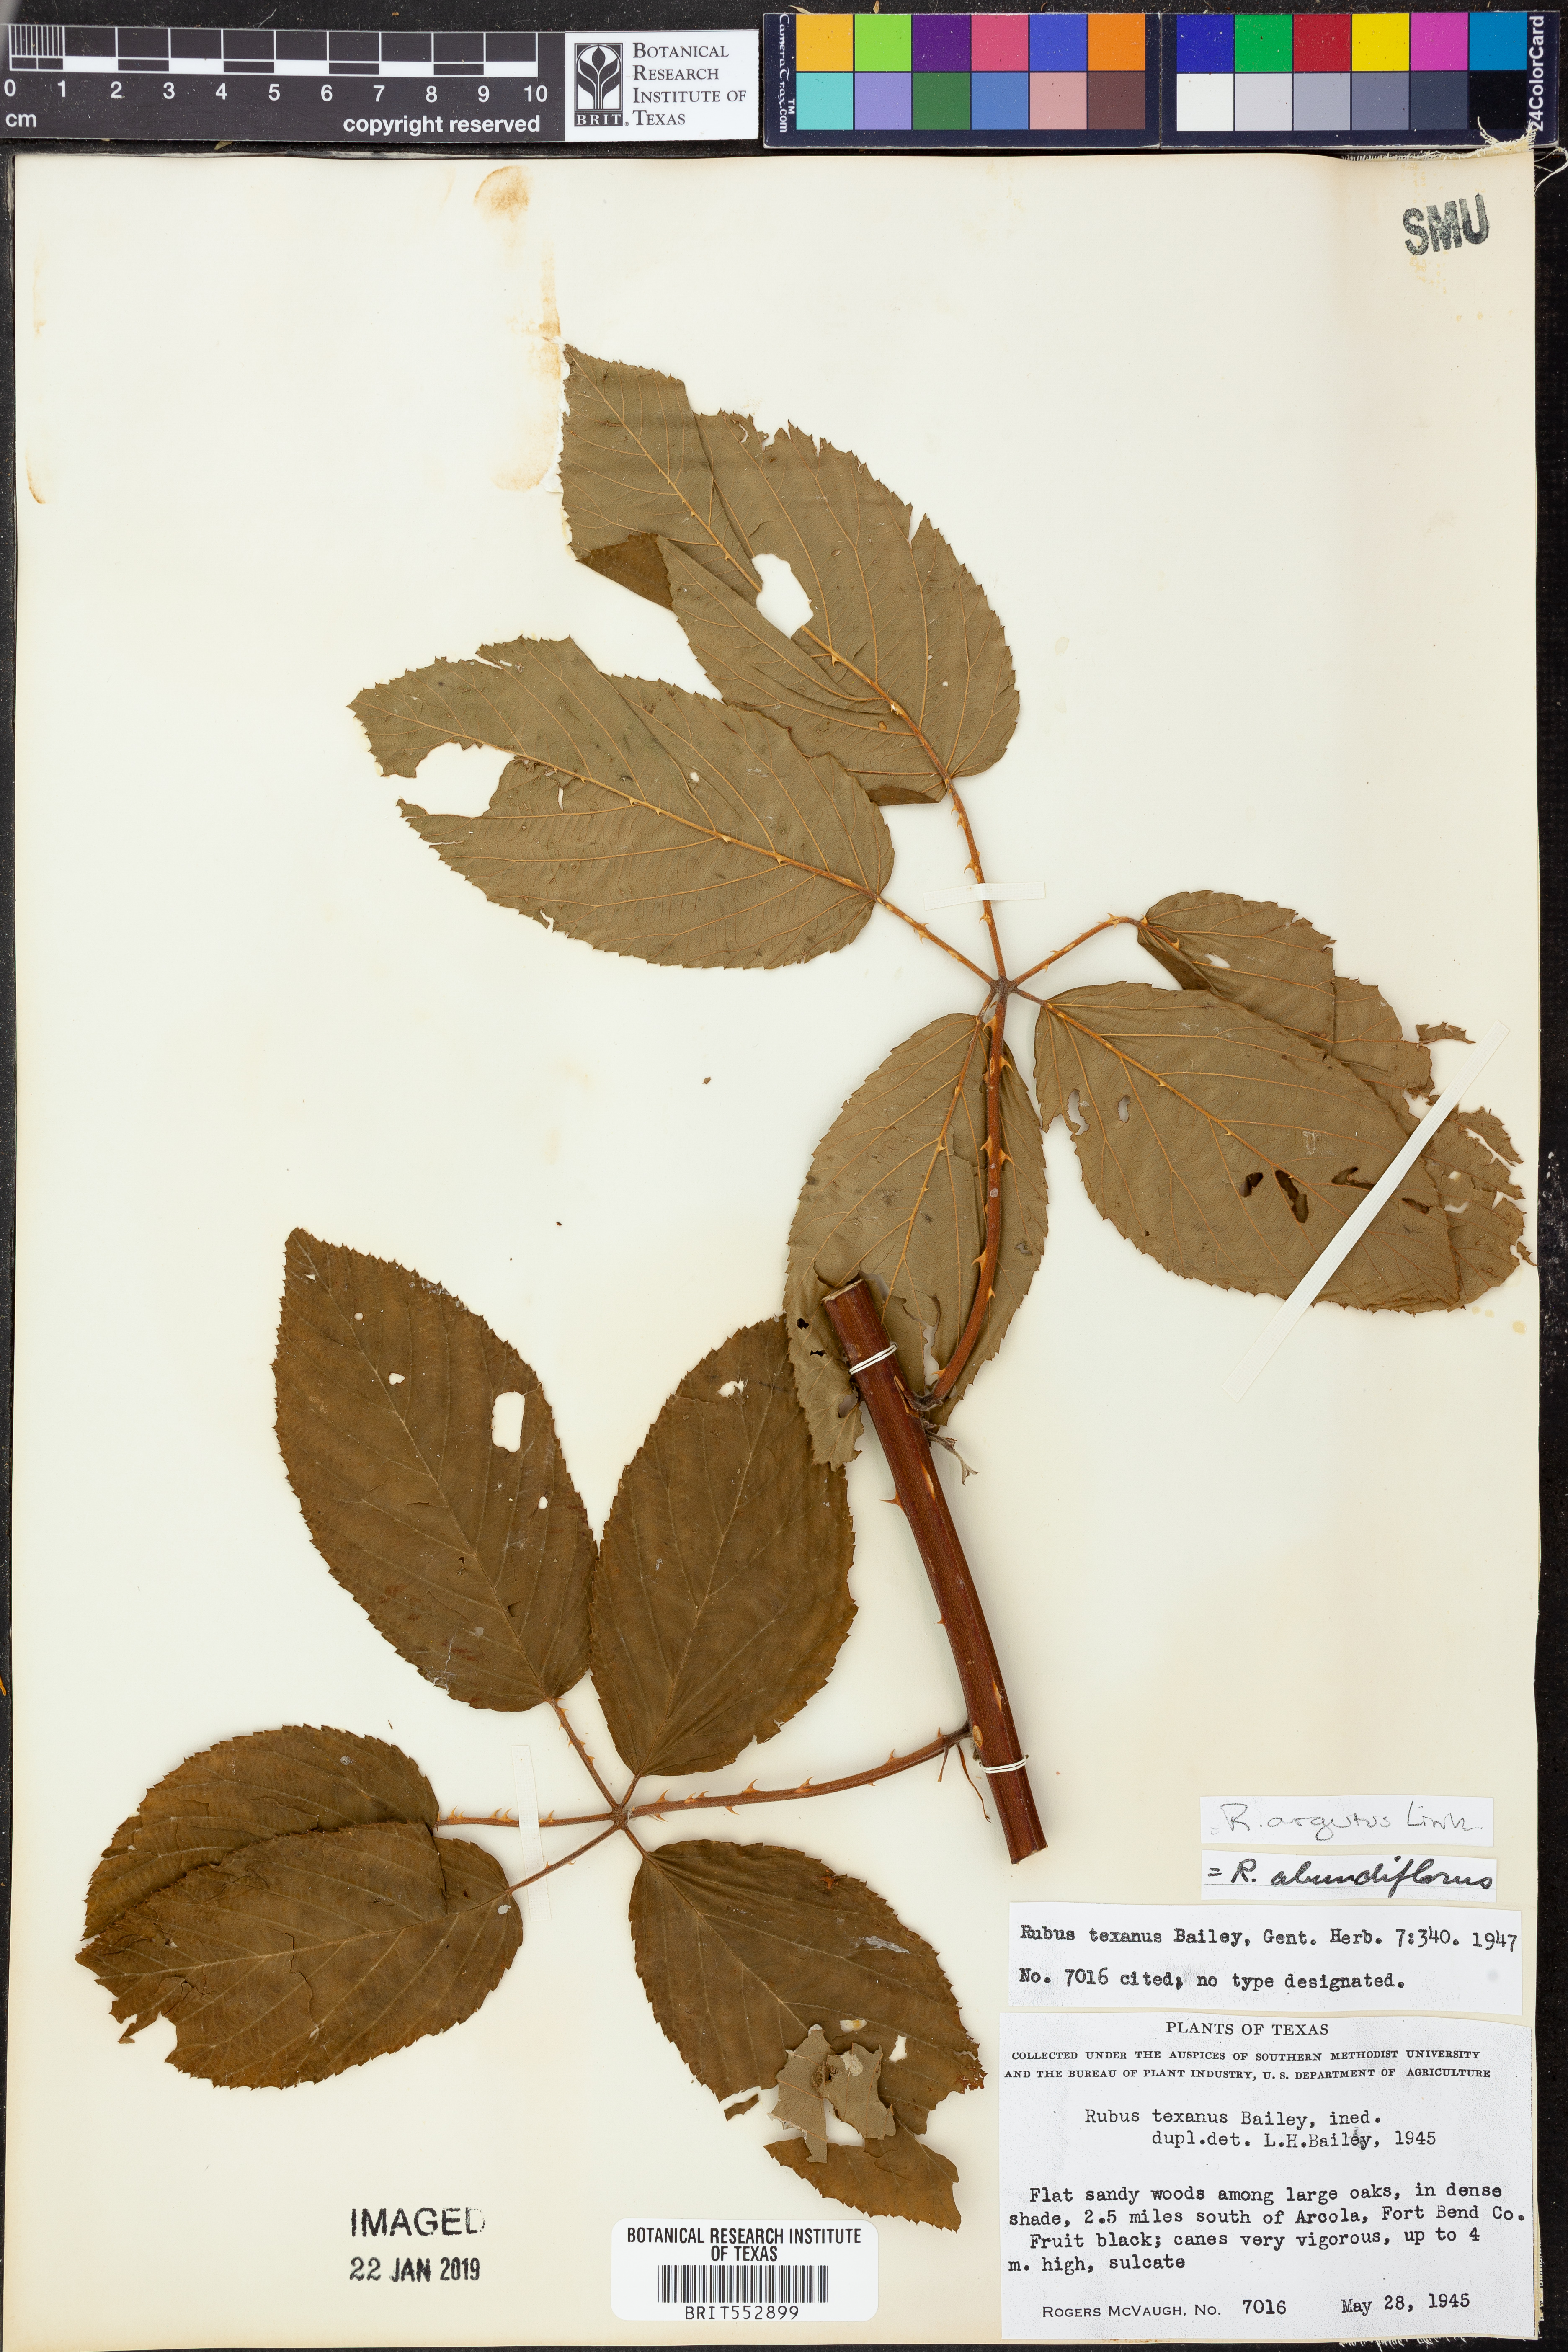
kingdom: Plantae
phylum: Tracheophyta
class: Magnoliopsida
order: Rosales
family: Rosaceae
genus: Rubus
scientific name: Rubus argutus
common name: Sawtooth blackberry
